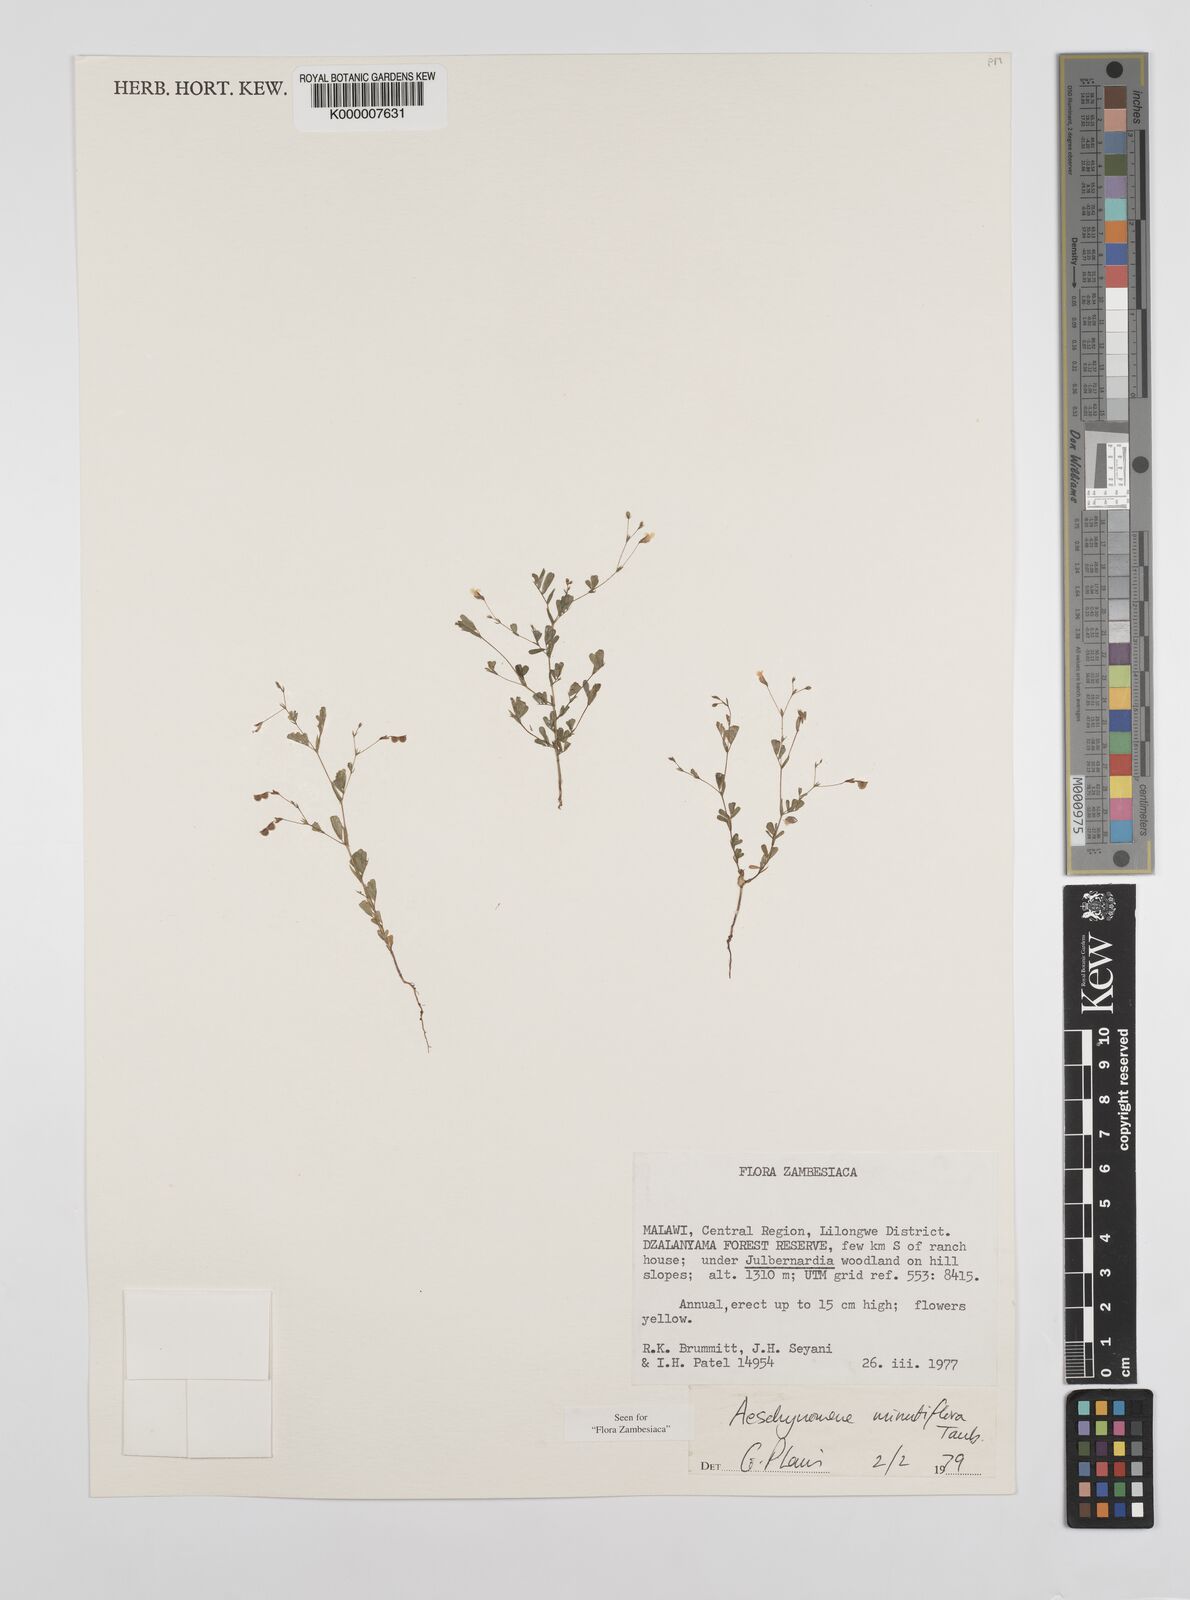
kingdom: Plantae
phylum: Tracheophyta
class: Magnoliopsida
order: Fabales
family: Fabaceae
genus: Aeschynomene
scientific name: Aeschynomene minutiflora
